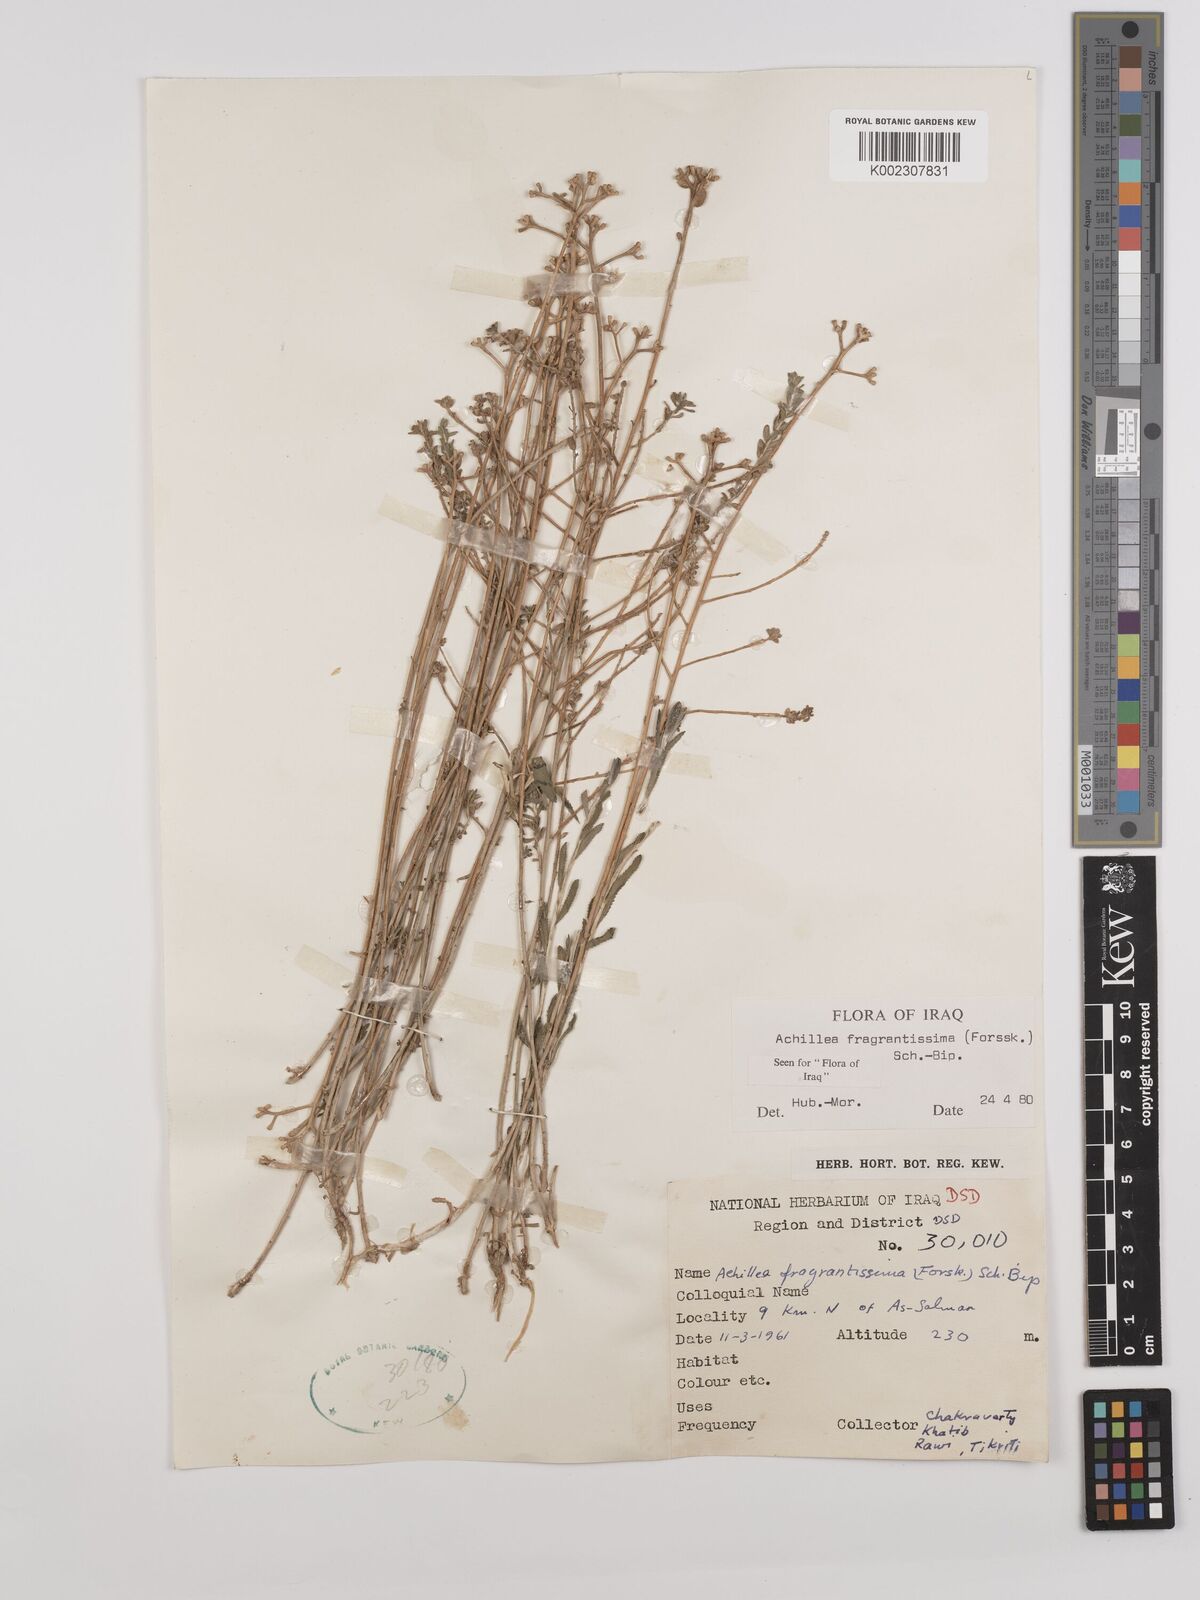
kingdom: Plantae
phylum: Tracheophyta
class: Magnoliopsida
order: Asterales
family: Asteraceae
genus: Achillea
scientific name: Achillea fragrantissima
